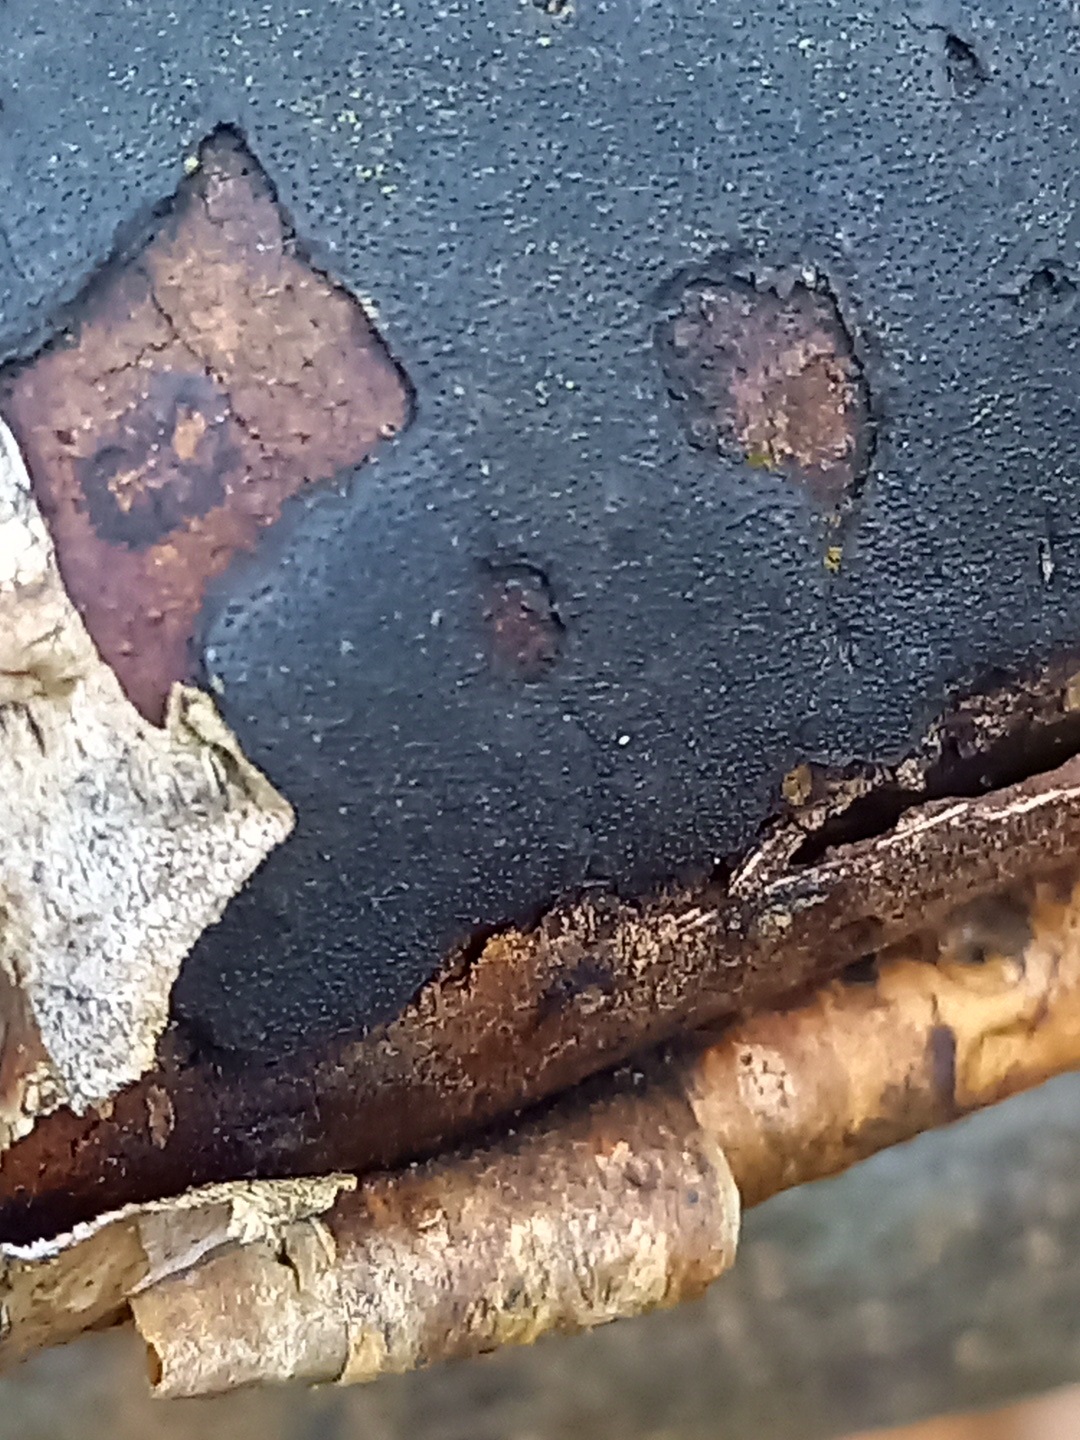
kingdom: Fungi
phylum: Ascomycota
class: Sordariomycetes
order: Xylariales
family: Diatrypaceae
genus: Diatrype
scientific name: Diatrype
